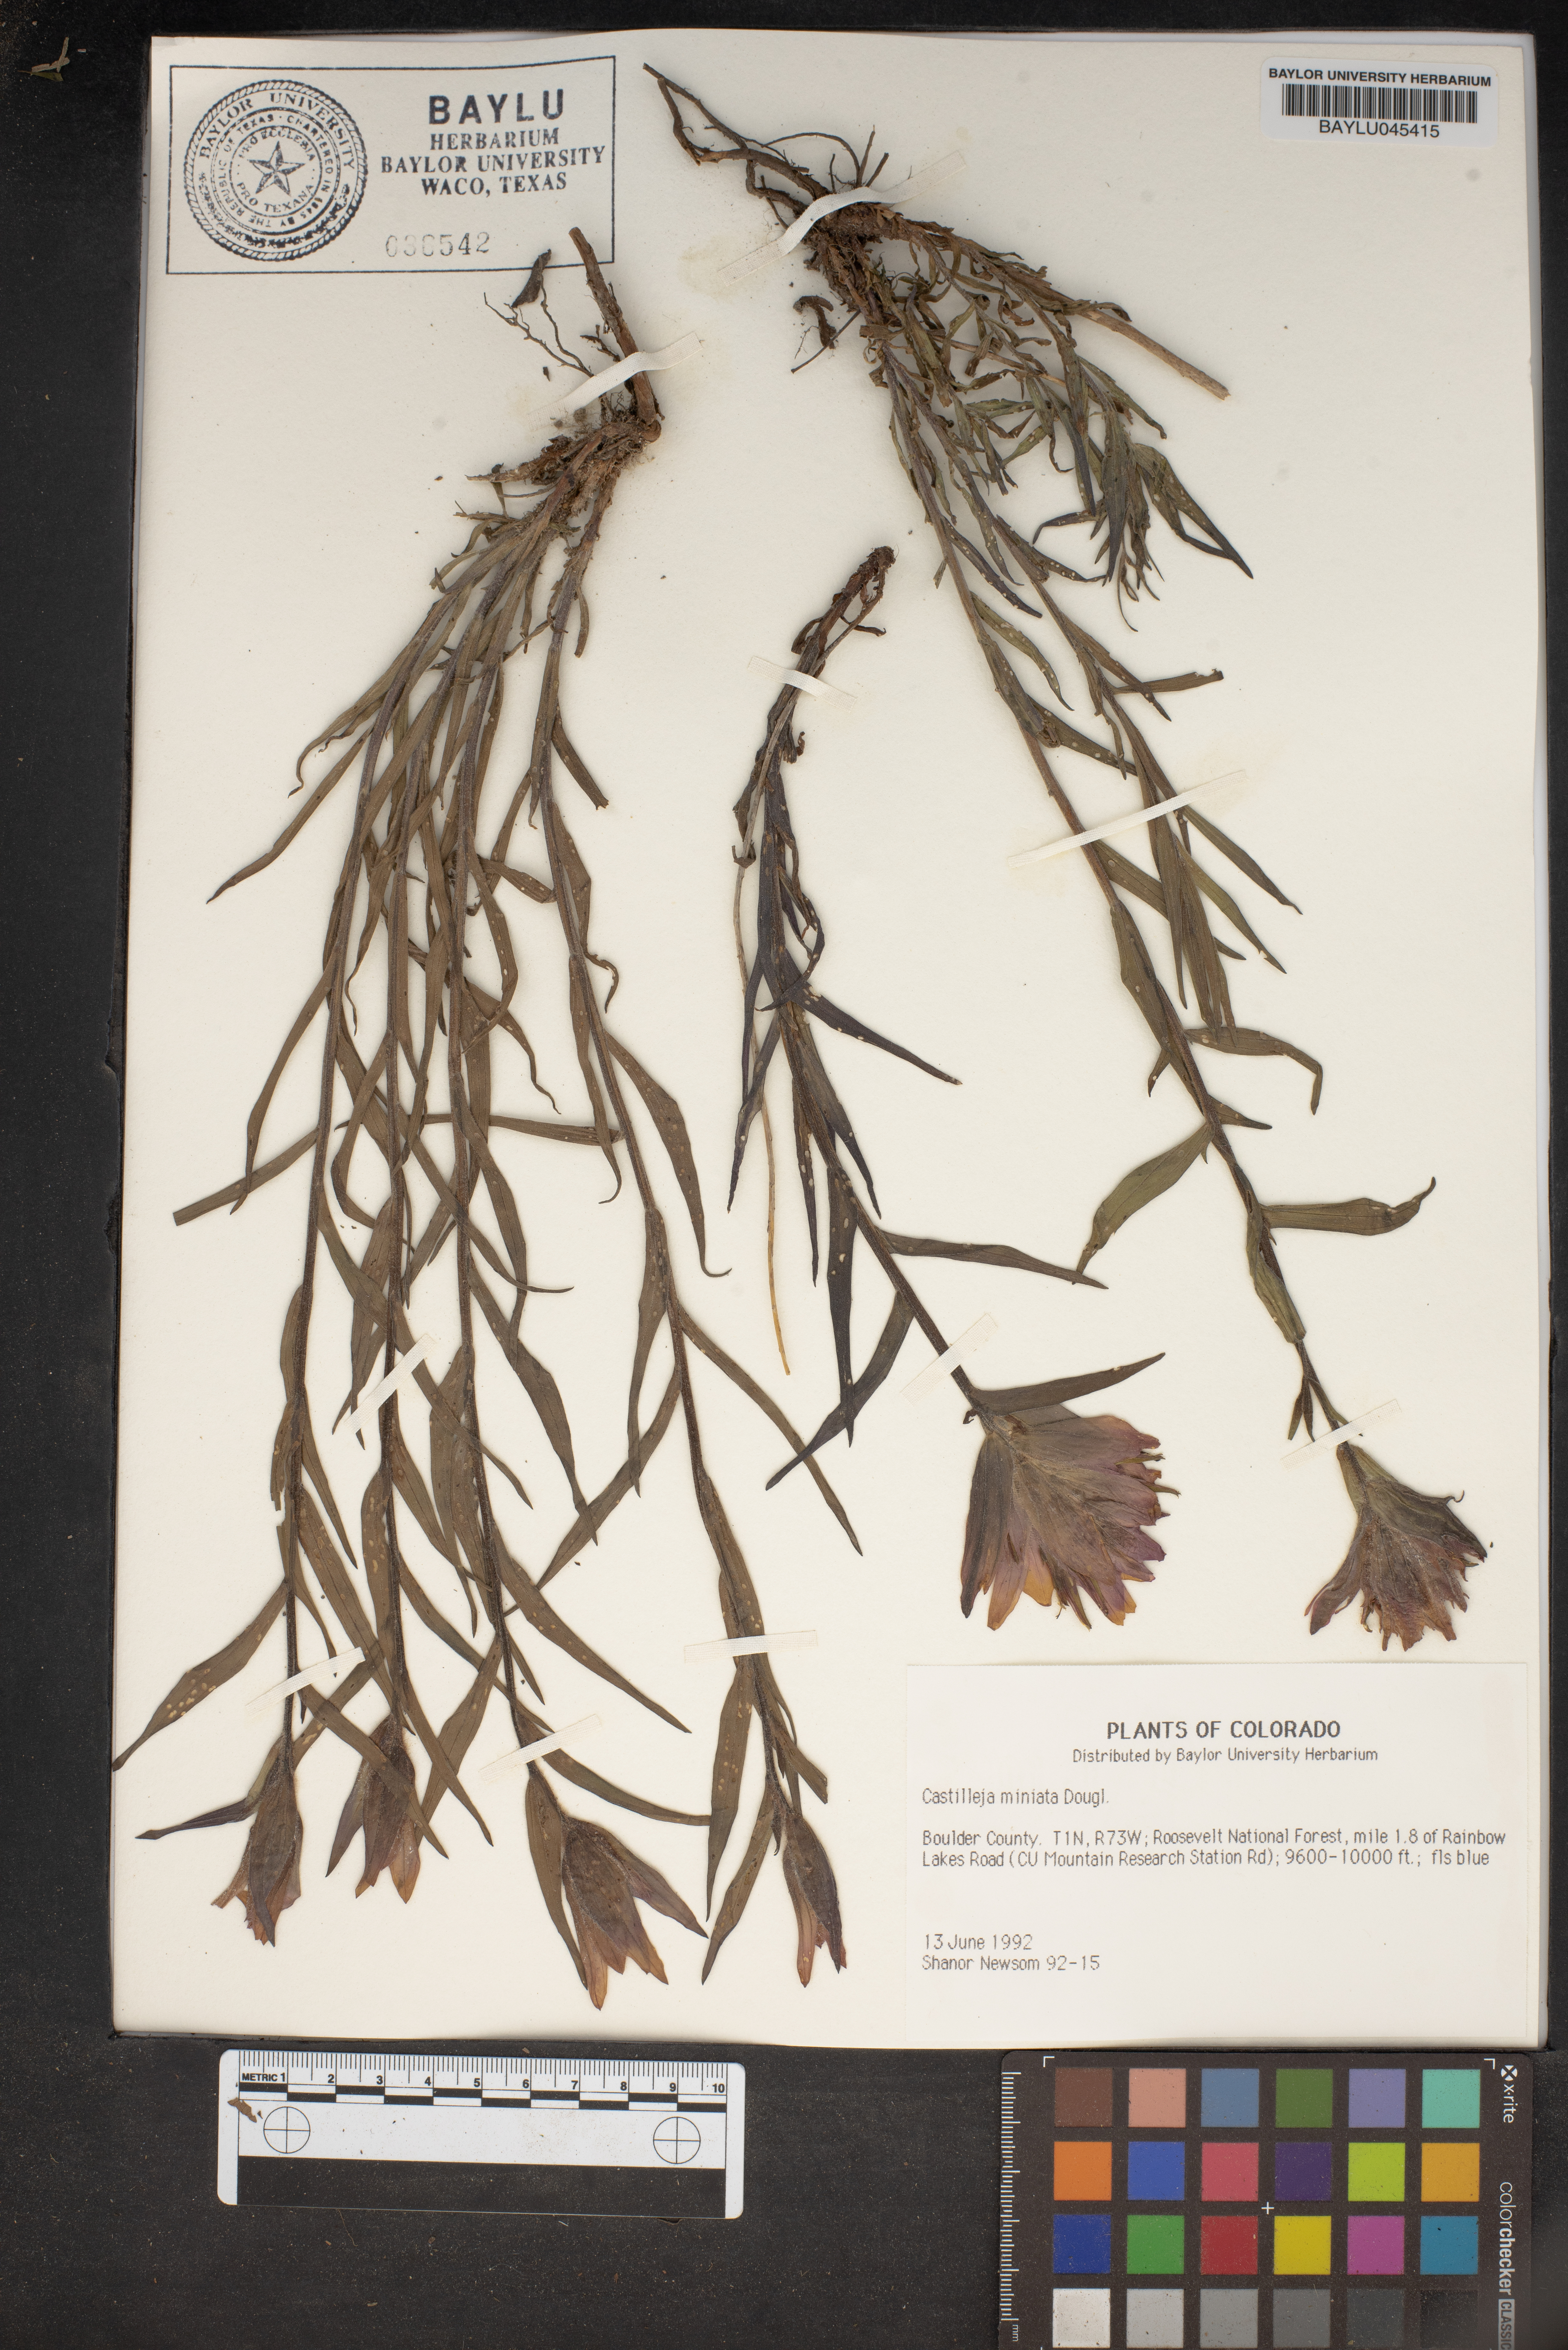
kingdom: Plantae
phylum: Tracheophyta
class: Magnoliopsida
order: Lamiales
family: Orobanchaceae
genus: Castilleja
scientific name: Castilleja miniata
